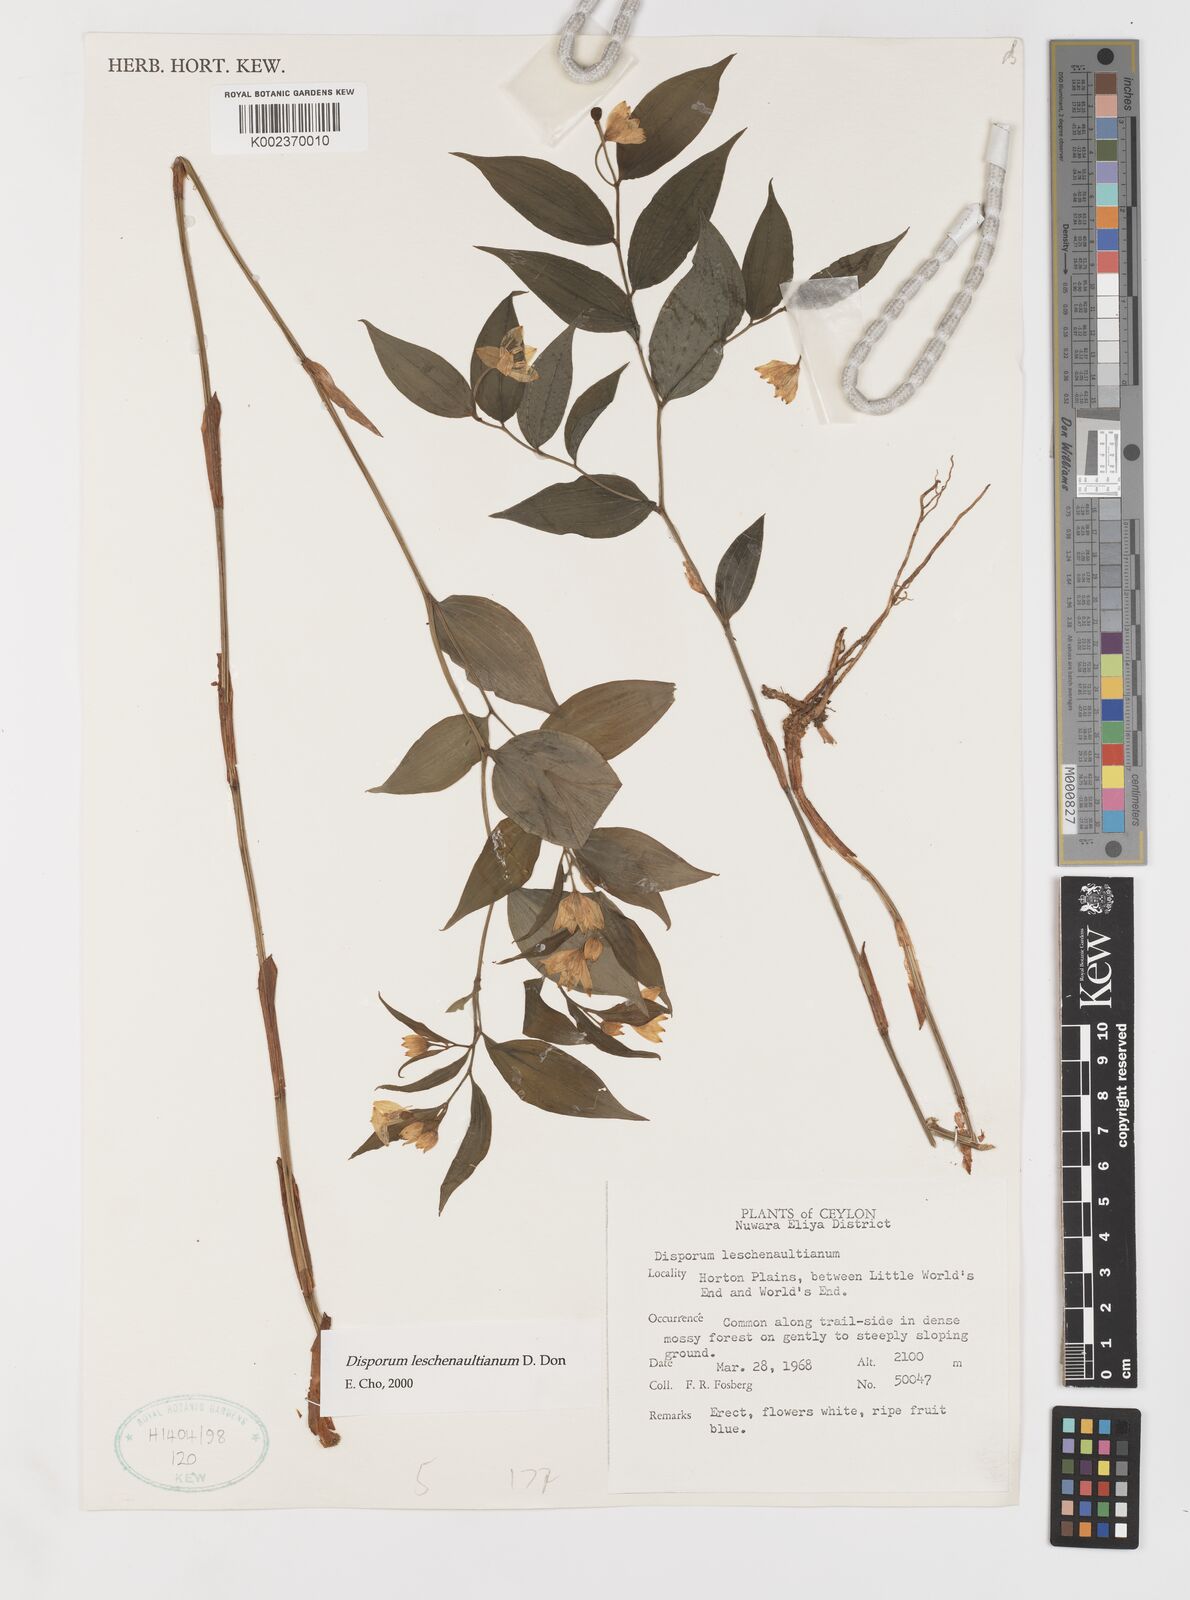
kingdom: Plantae
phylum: Tracheophyta
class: Liliopsida
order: Liliales
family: Colchicaceae
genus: Disporum
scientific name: Disporum cantoniense
